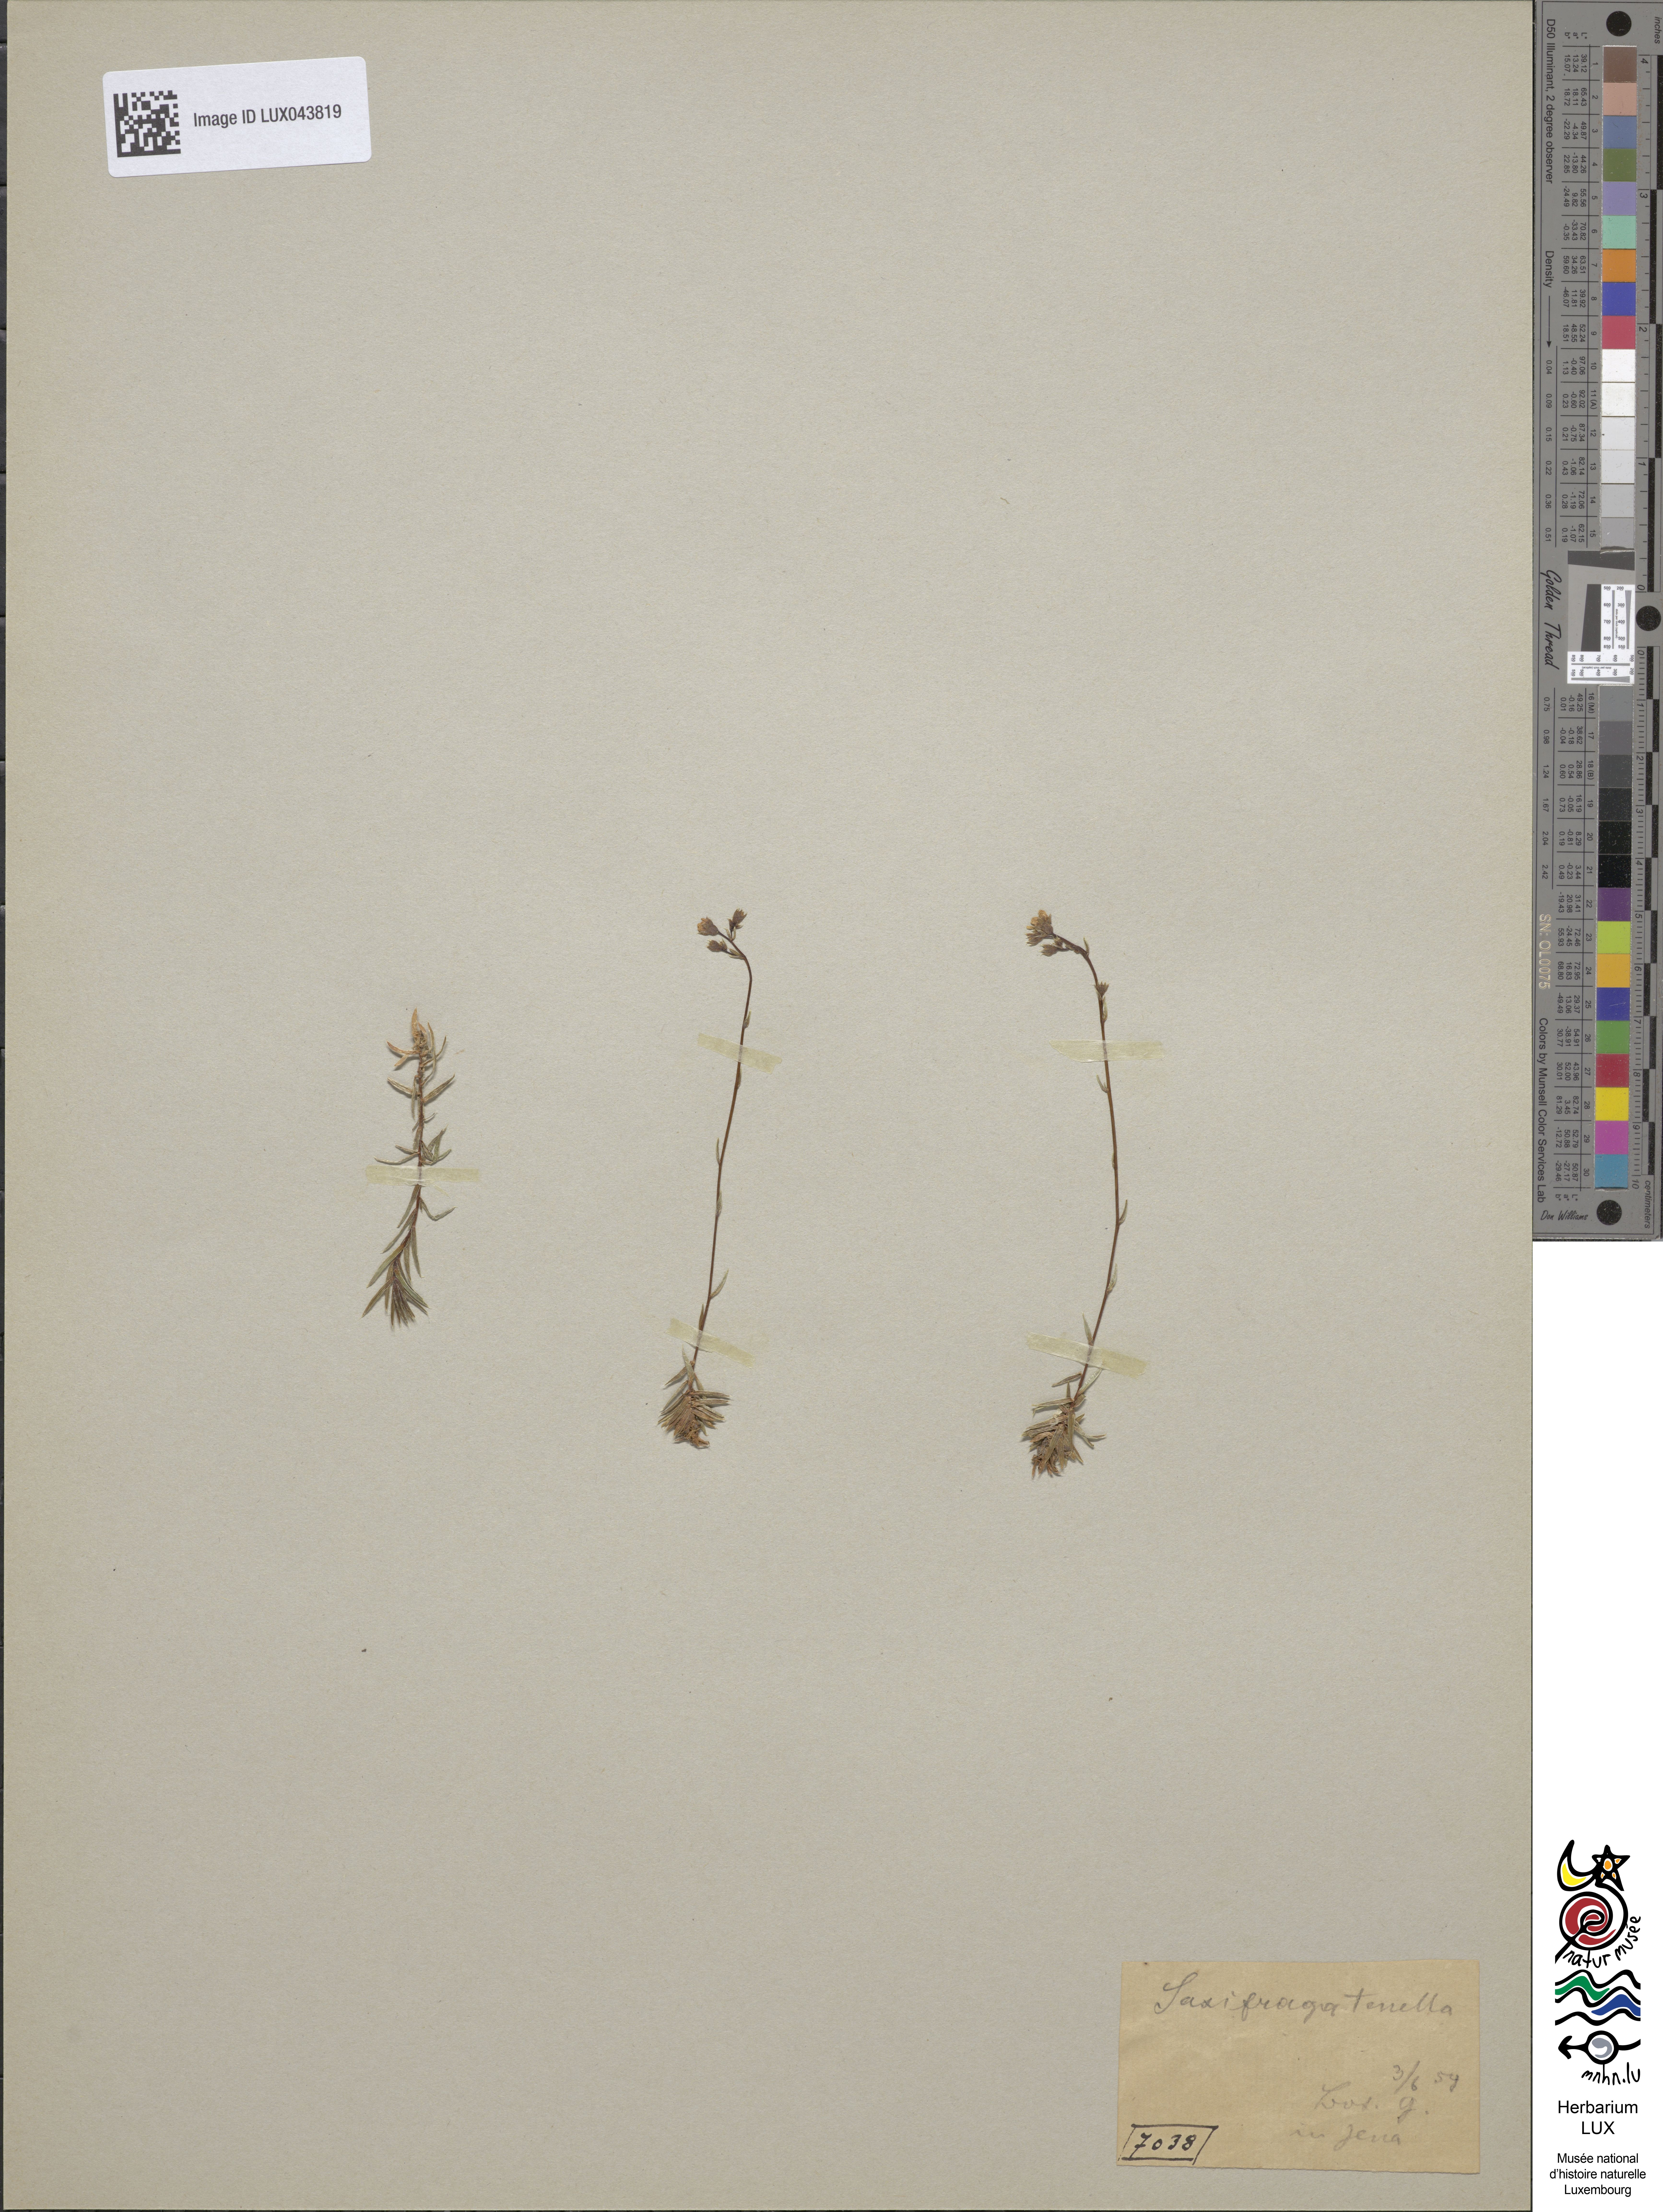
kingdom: Plantae
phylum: Tracheophyta
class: Magnoliopsida
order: Saxifragales
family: Saxifragaceae
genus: Saxifraga
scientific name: Saxifraga tenella
